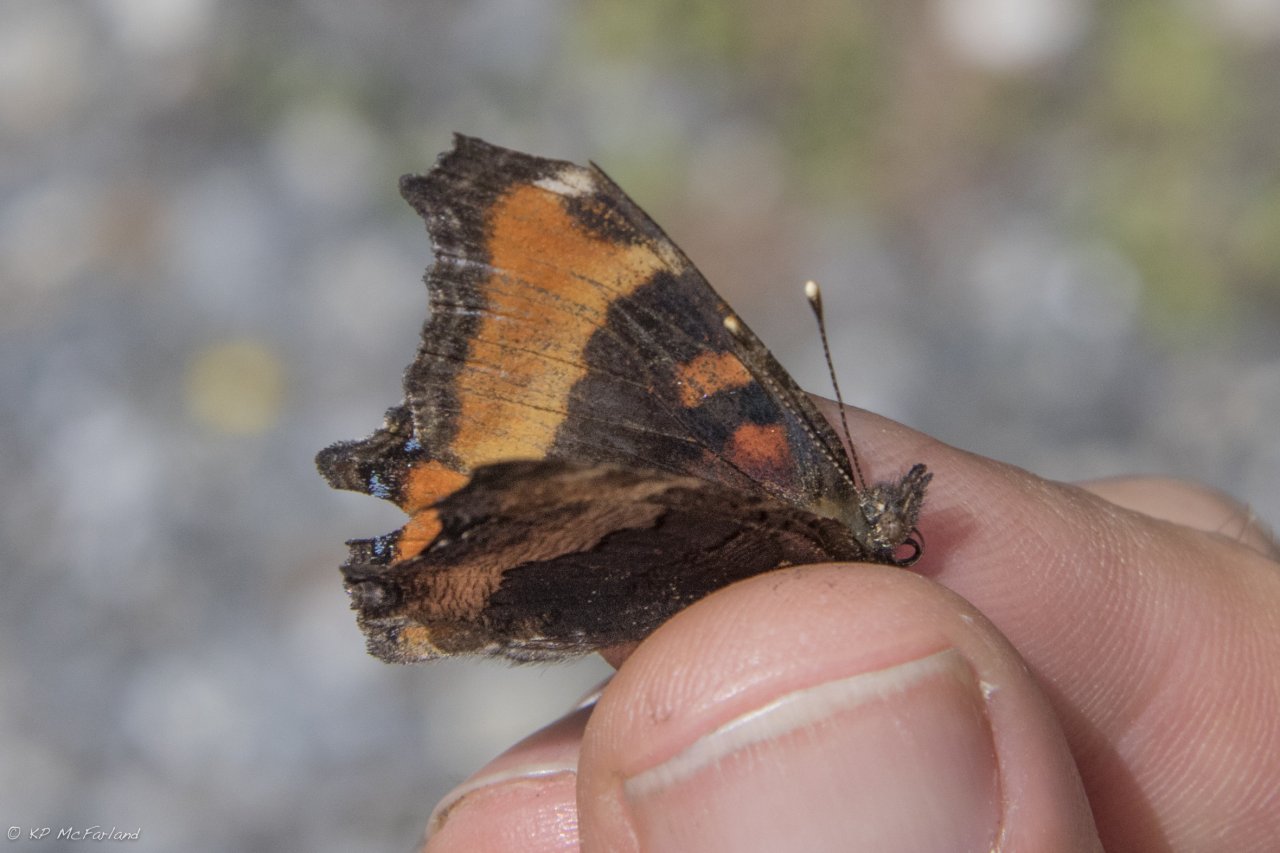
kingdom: Animalia
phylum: Arthropoda
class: Insecta
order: Lepidoptera
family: Nymphalidae
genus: Aglais
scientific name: Aglais milberti
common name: Milbert's Tortoiseshell
